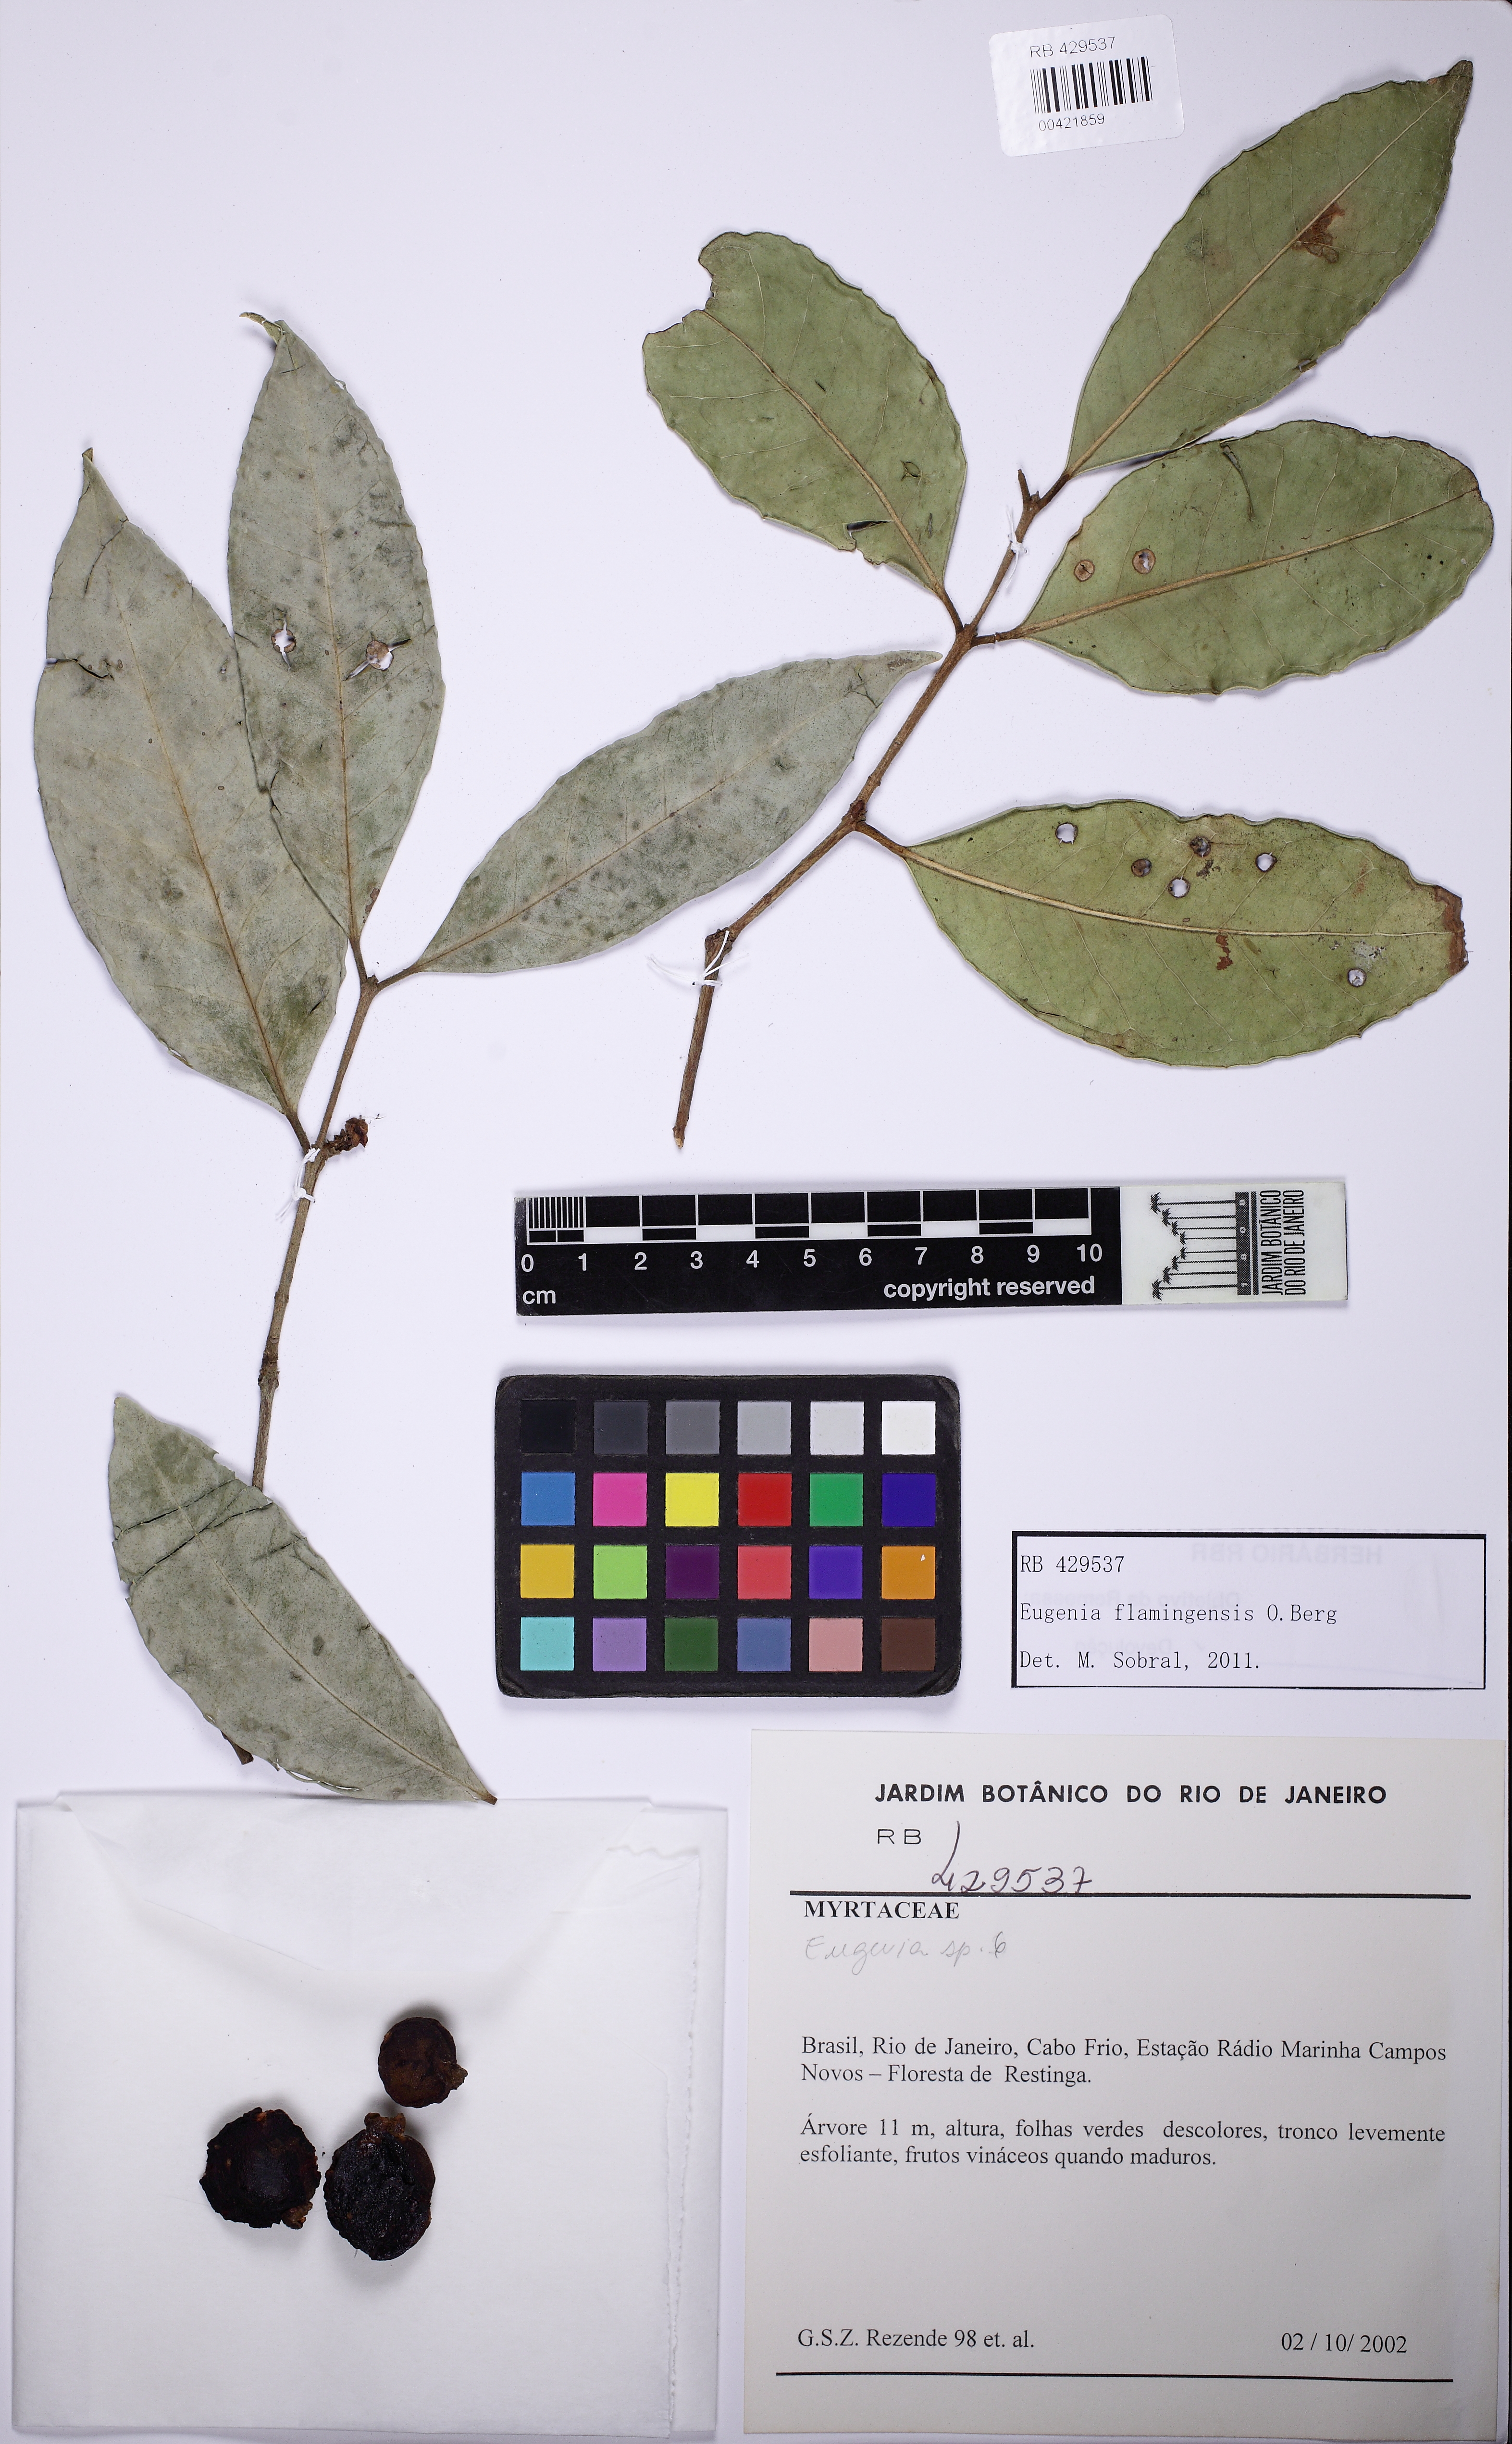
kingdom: Plantae
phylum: Tracheophyta
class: Magnoliopsida
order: Myrtales
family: Myrtaceae
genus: Eugenia
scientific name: Eugenia flamingensis
